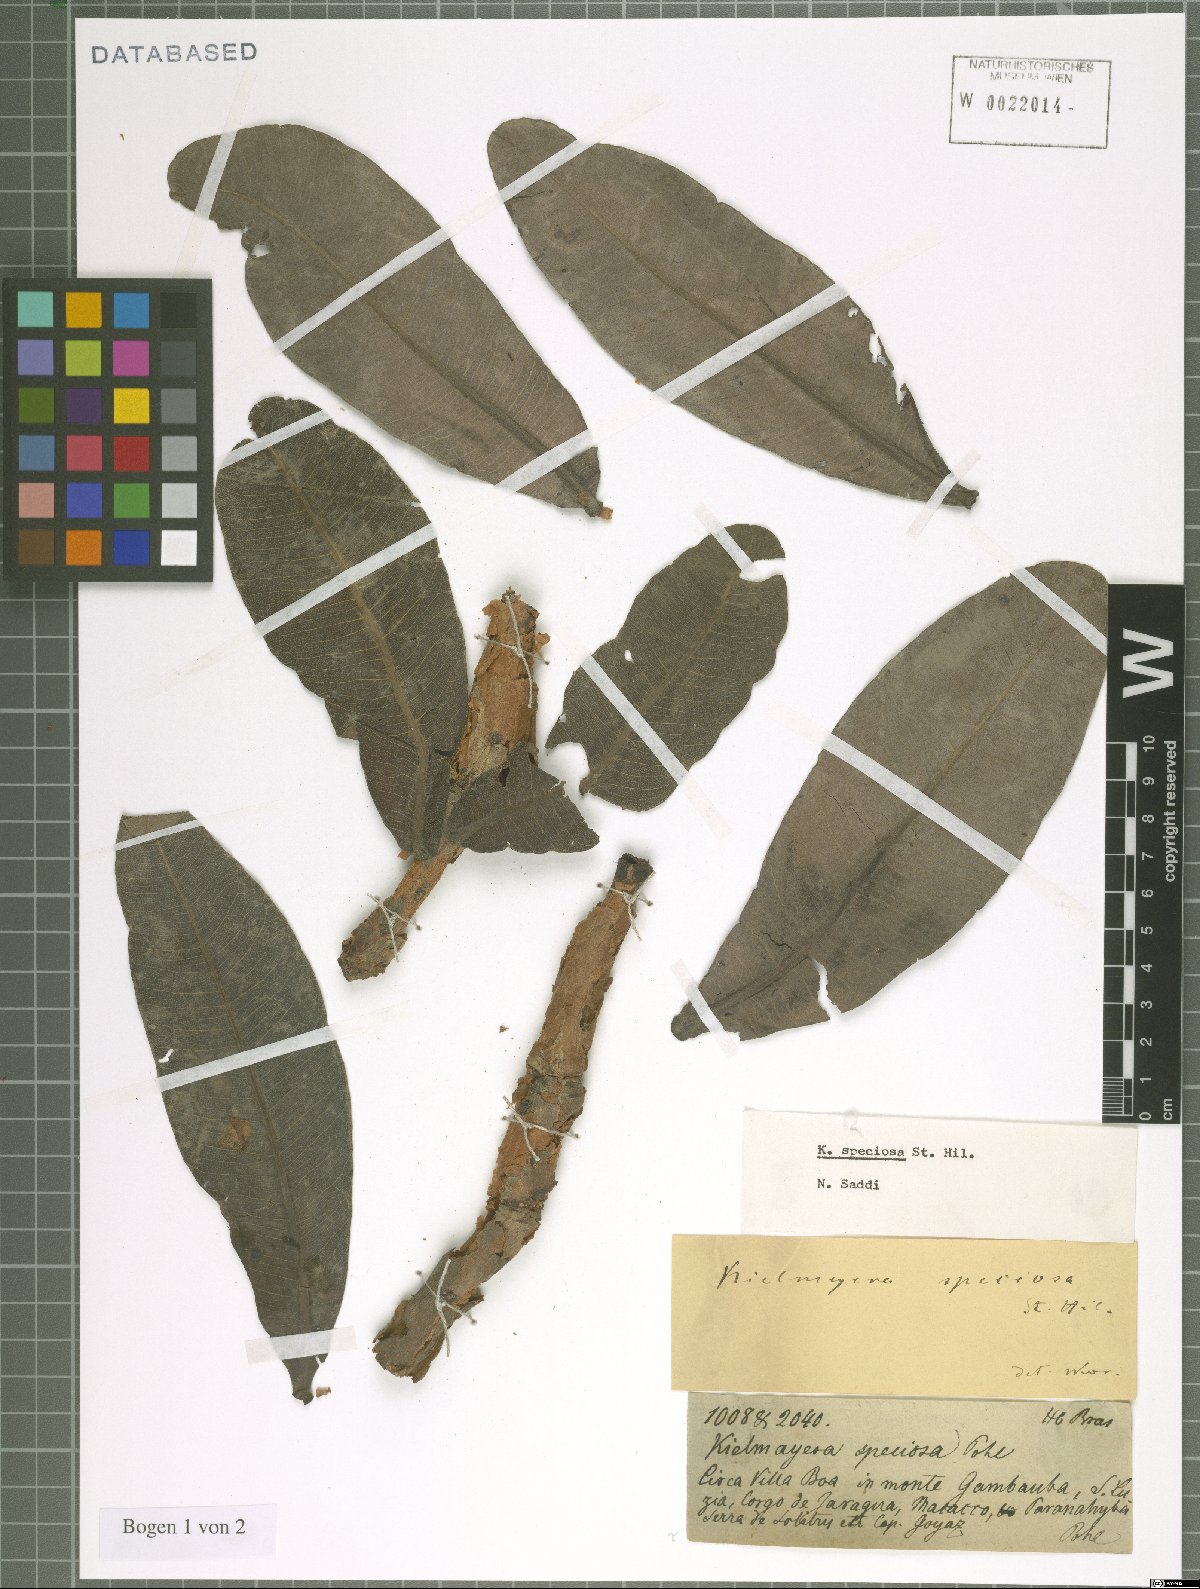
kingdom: Plantae
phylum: Tracheophyta
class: Magnoliopsida
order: Malpighiales
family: Calophyllaceae
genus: Kielmeyera
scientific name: Kielmeyera speciosa
